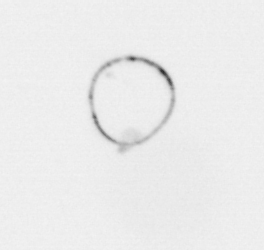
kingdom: Chromista
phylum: Myzozoa
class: Dinophyceae
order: Noctilucales
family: Noctilucaceae
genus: Noctiluca
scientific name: Noctiluca scintillans
